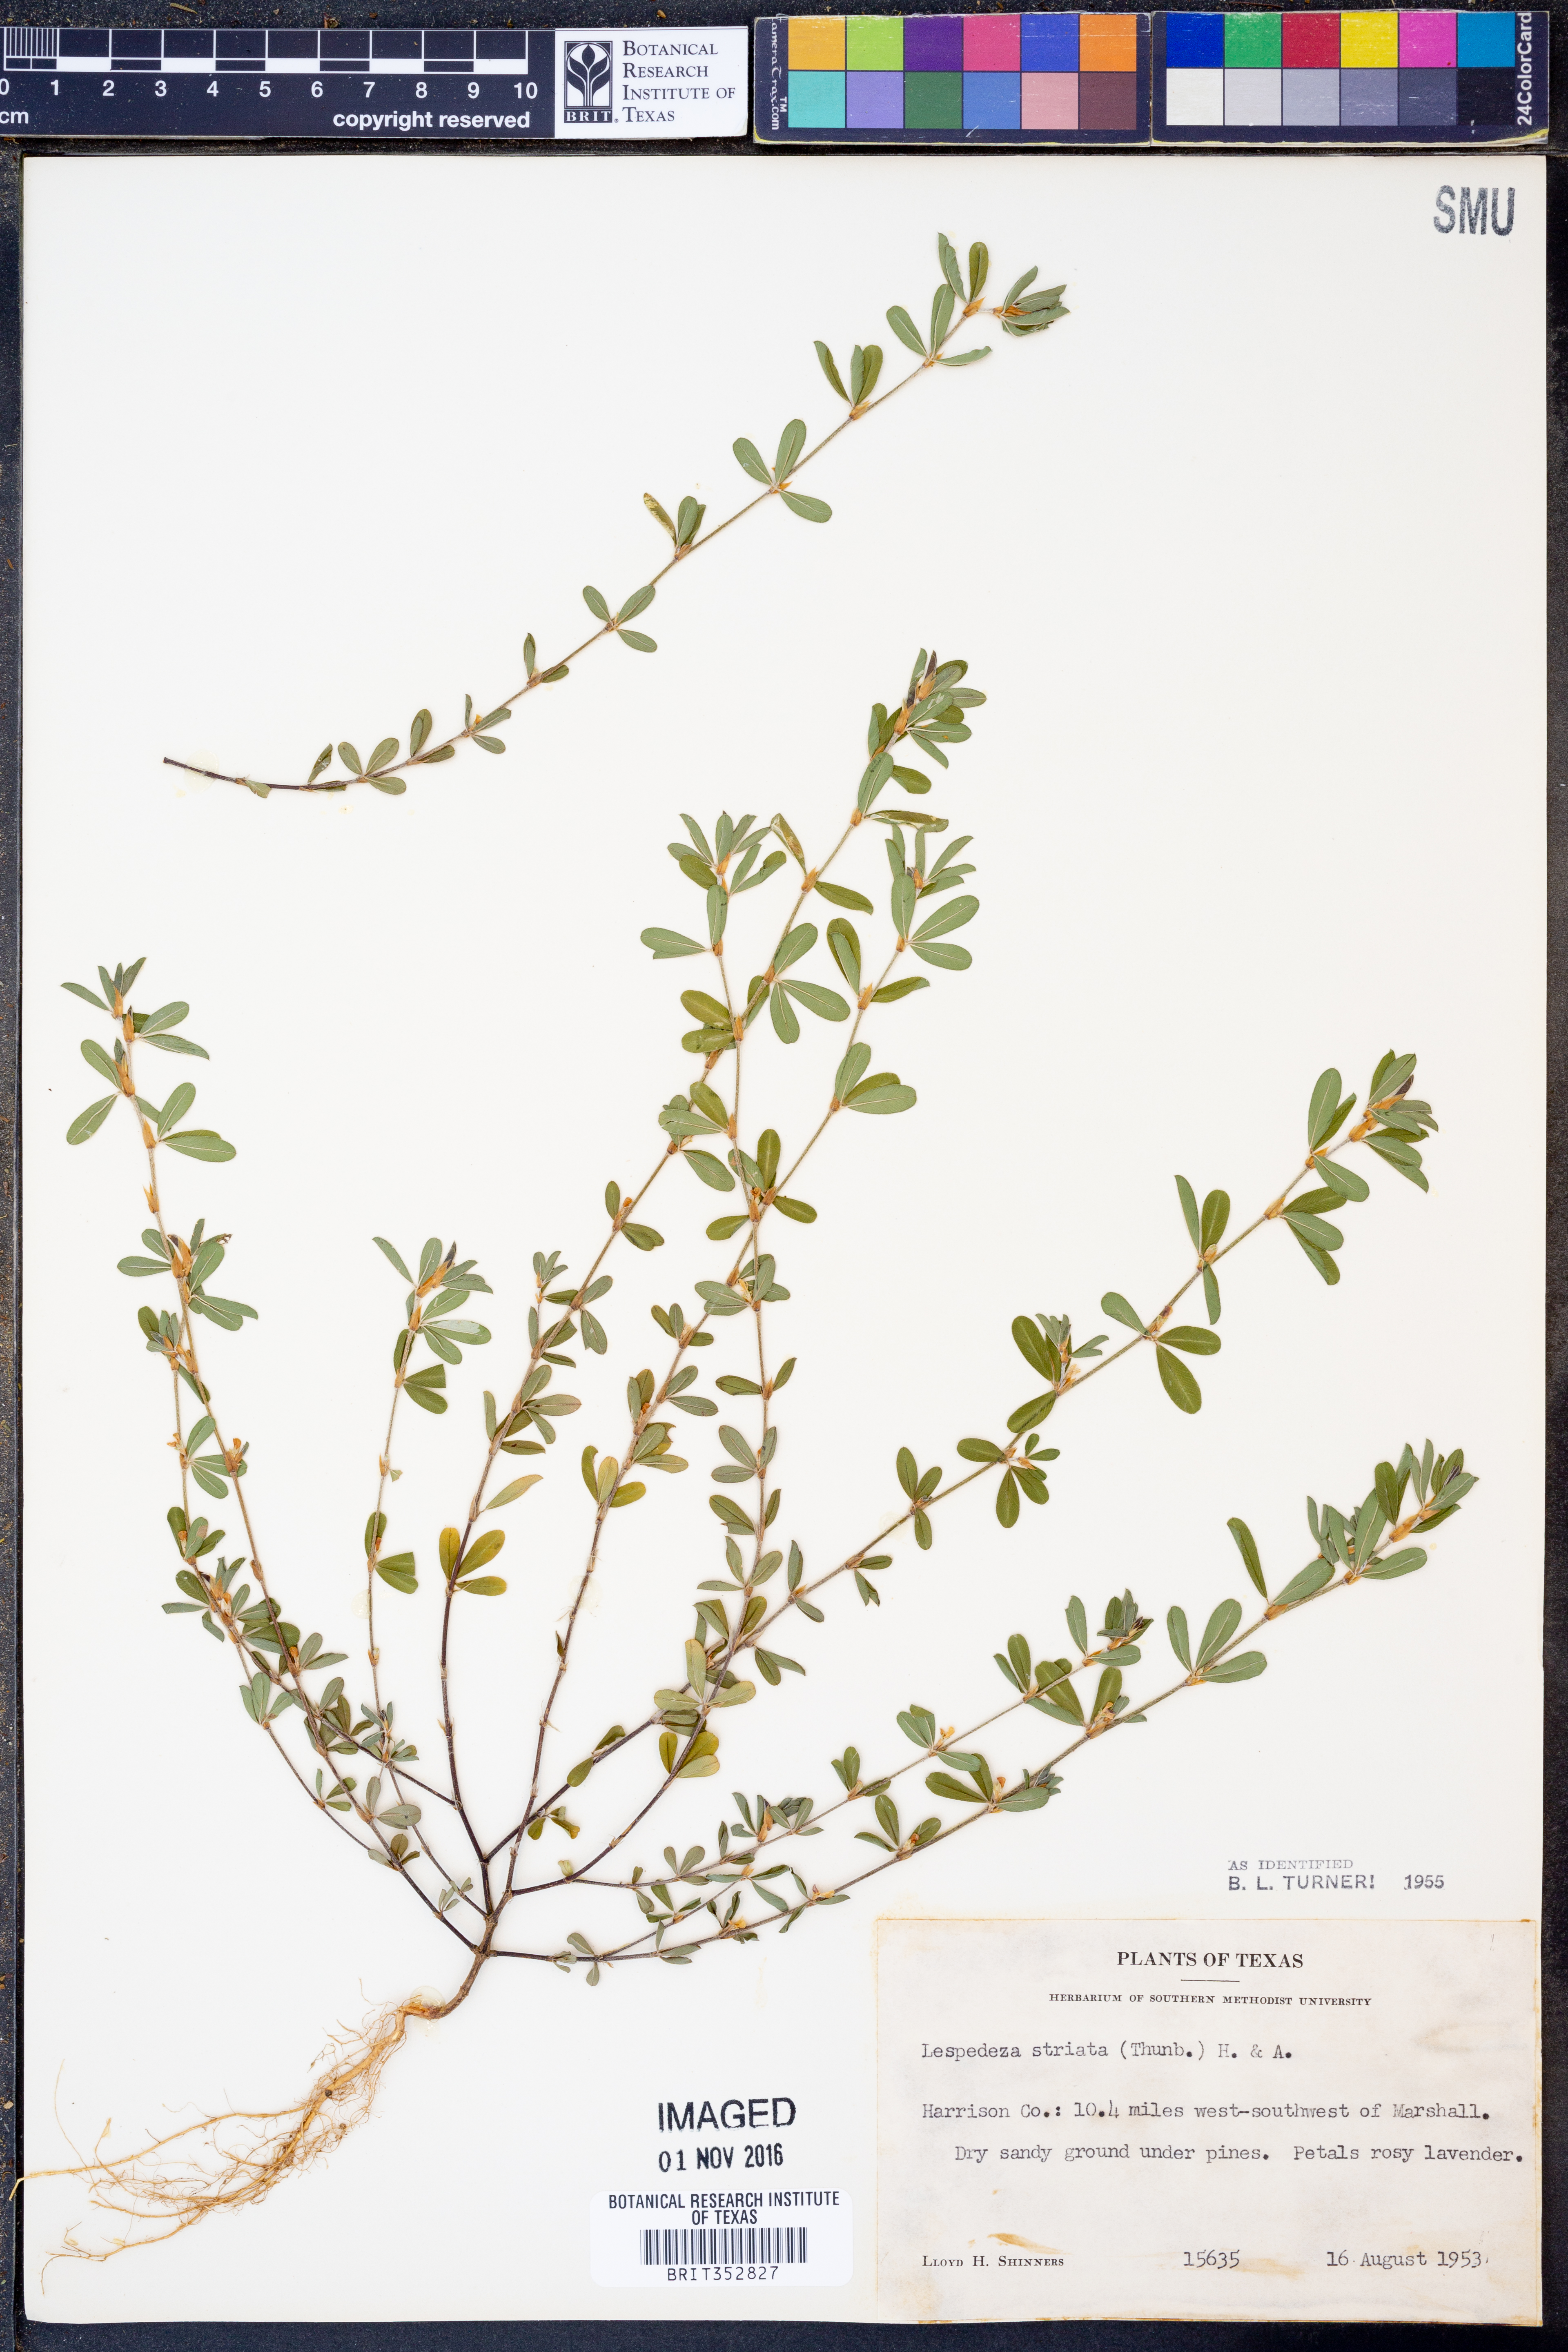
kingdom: Plantae
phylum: Tracheophyta
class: Magnoliopsida
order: Fabales
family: Fabaceae
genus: Kummerowia
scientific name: Kummerowia striata
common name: Japanese clover
